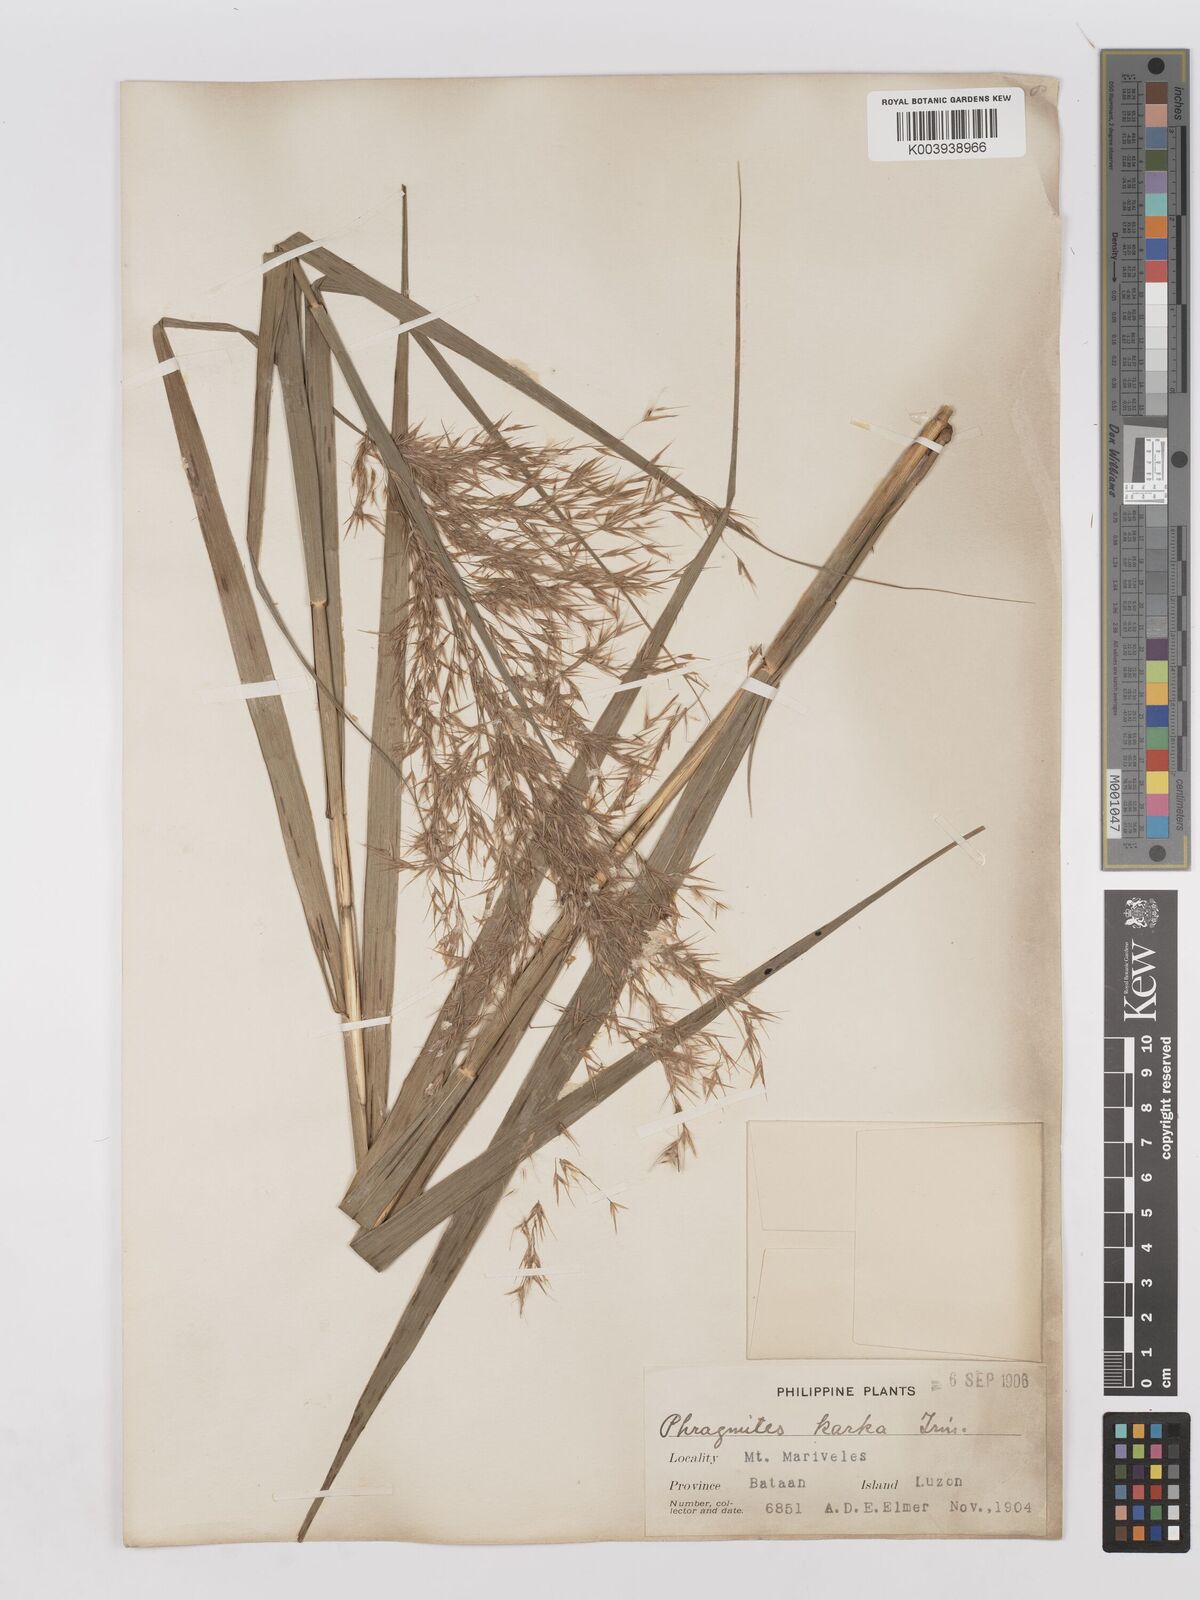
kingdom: Plantae
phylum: Tracheophyta
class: Liliopsida
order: Poales
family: Poaceae
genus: Phragmites
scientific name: Phragmites karka
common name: Tropical reed
